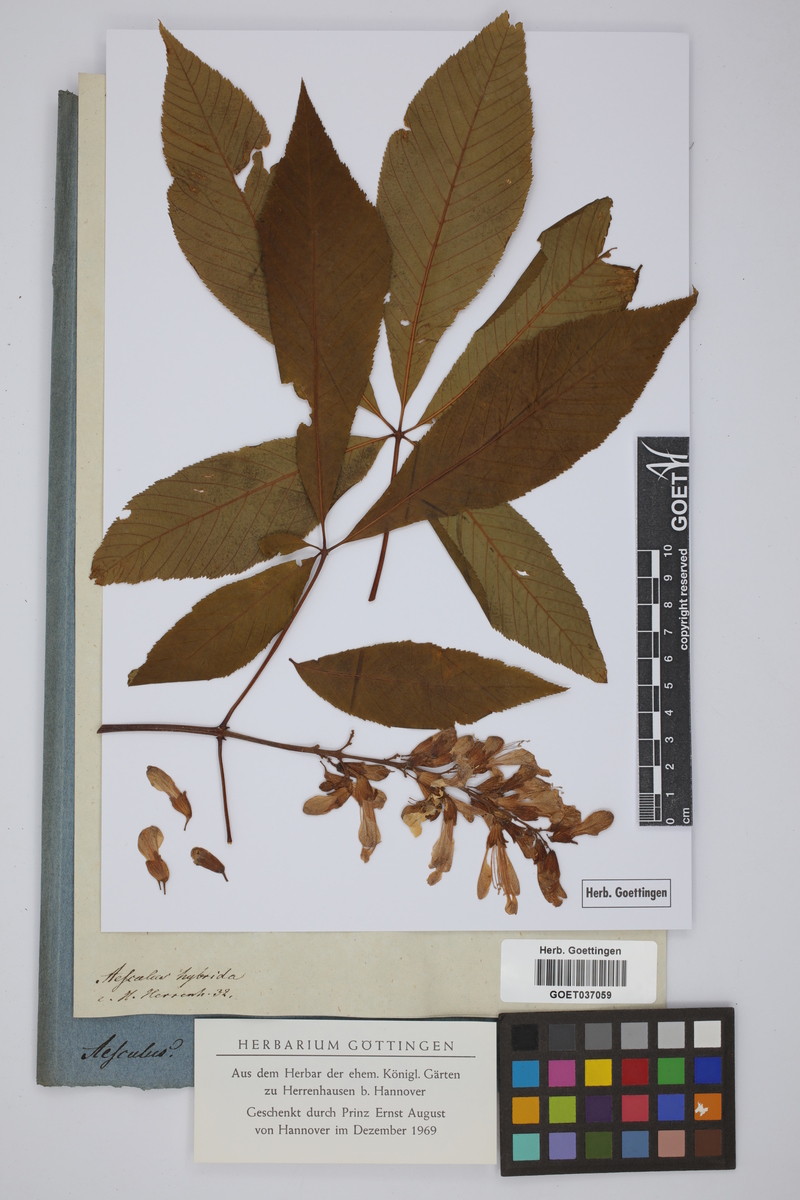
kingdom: Plantae
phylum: Tracheophyta
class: Magnoliopsida
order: Sapindales
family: Sapindaceae
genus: Aesculus
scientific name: Aesculus hybrida
